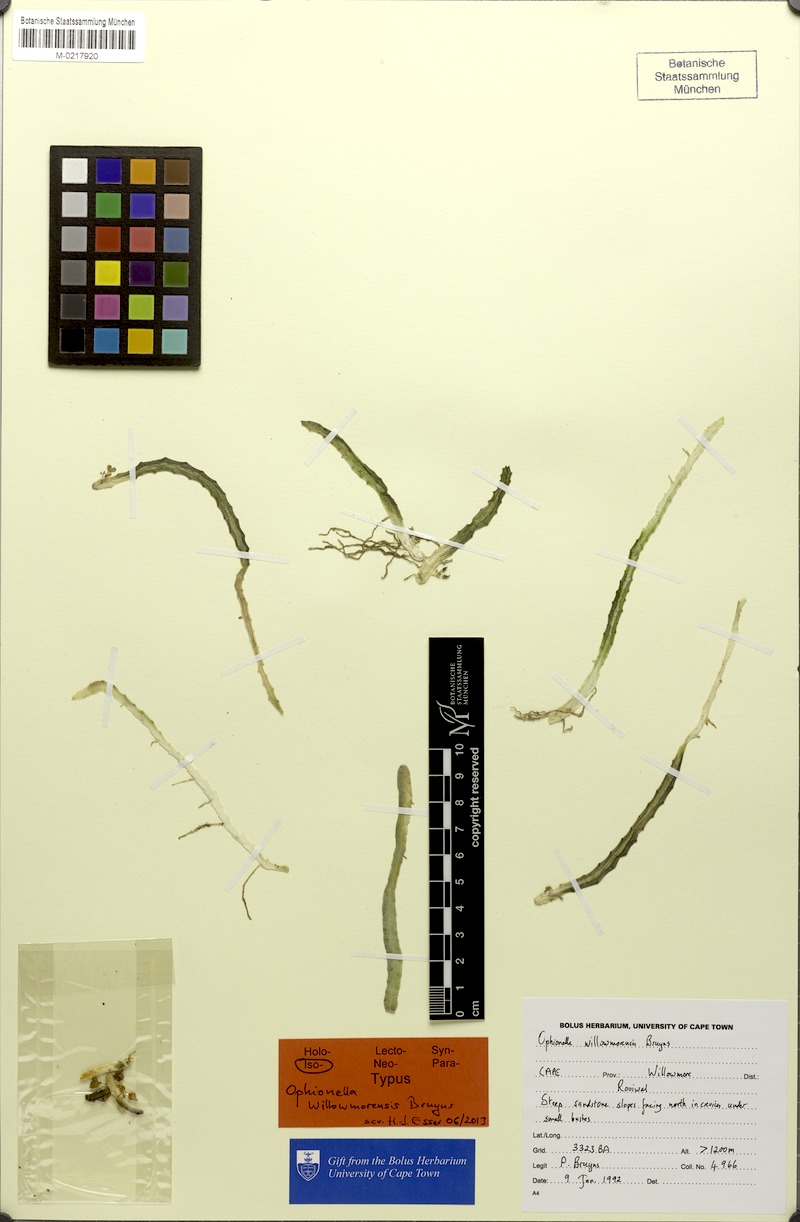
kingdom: Plantae
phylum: Tracheophyta
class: Magnoliopsida
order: Gentianales
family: Apocynaceae
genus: Ceropegia
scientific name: Ceropegia willowmorensis
